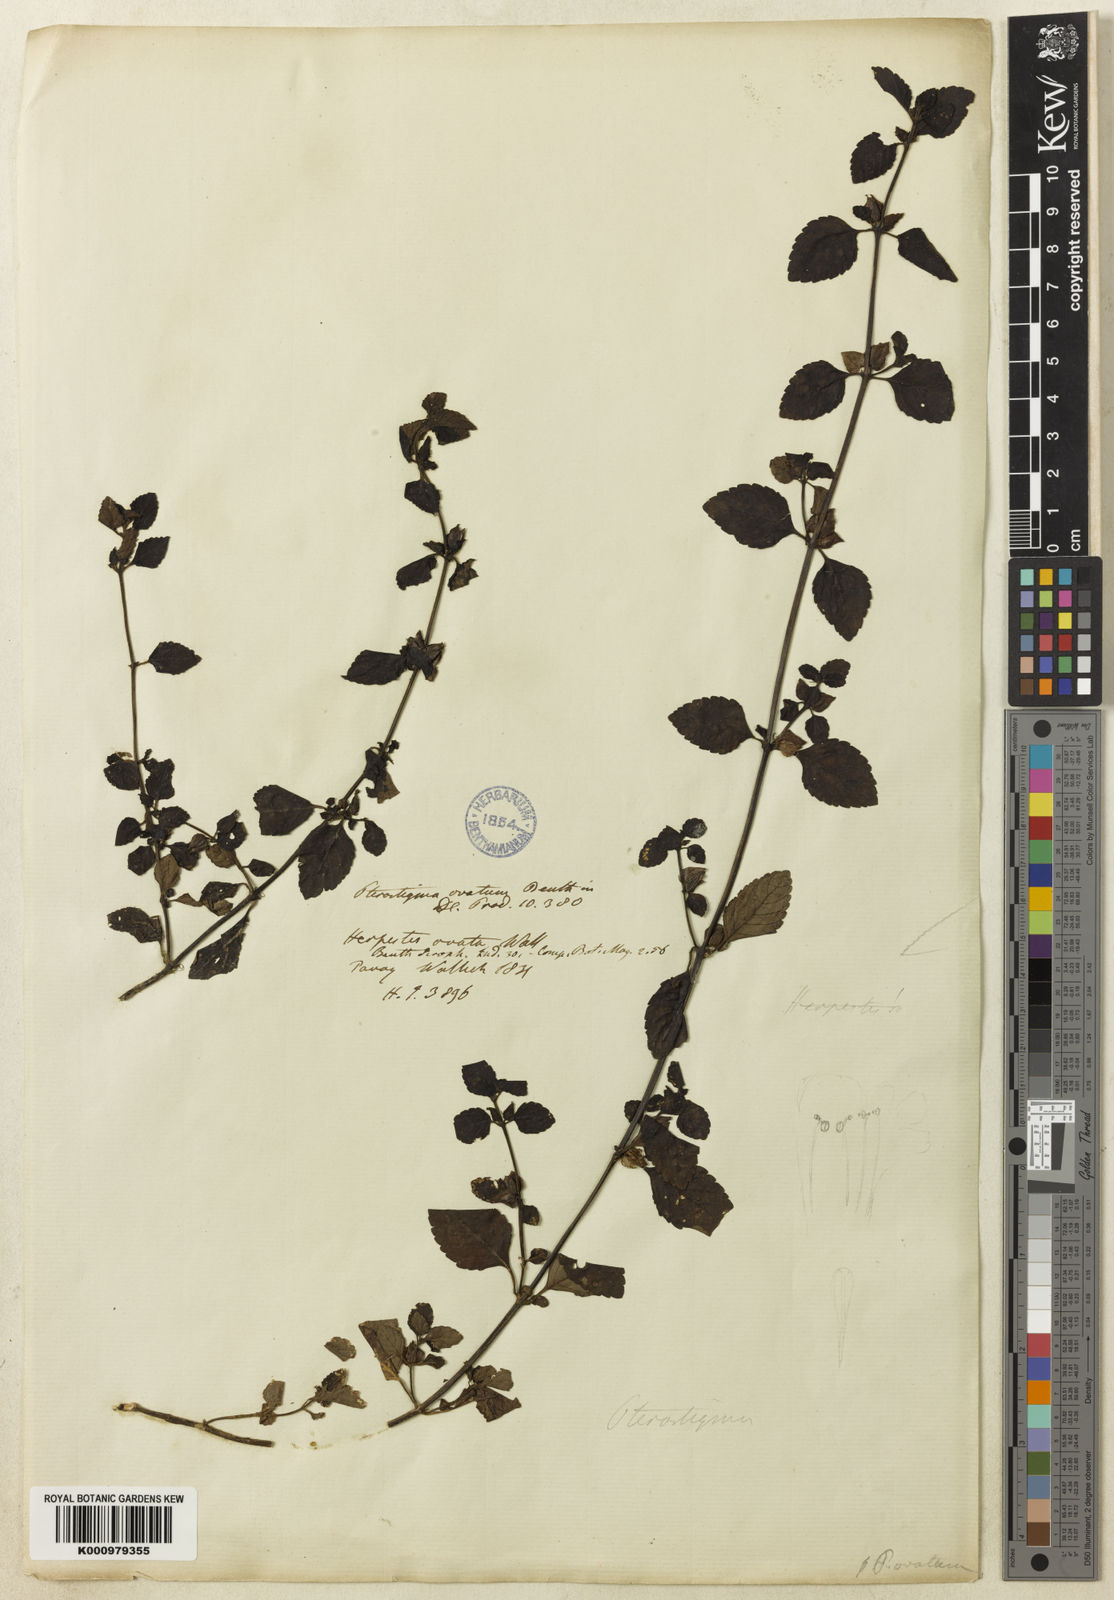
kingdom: Plantae
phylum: Tracheophyta
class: Magnoliopsida
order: Lamiales
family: Plantaginaceae
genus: Adenosma
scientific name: Adenosma
